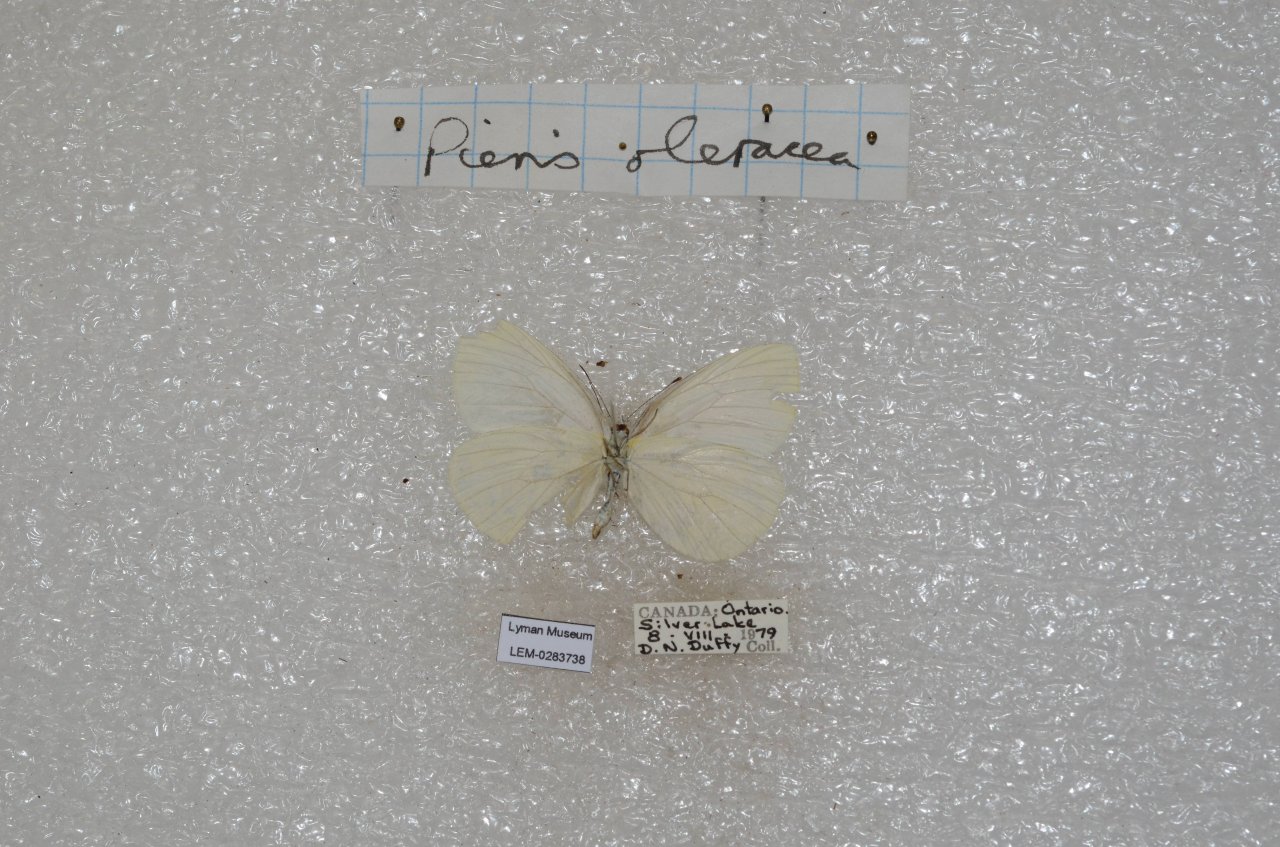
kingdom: Animalia
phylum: Arthropoda
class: Insecta
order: Lepidoptera
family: Pieridae
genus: Pieris
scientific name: Pieris oleracea
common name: Mustard White
